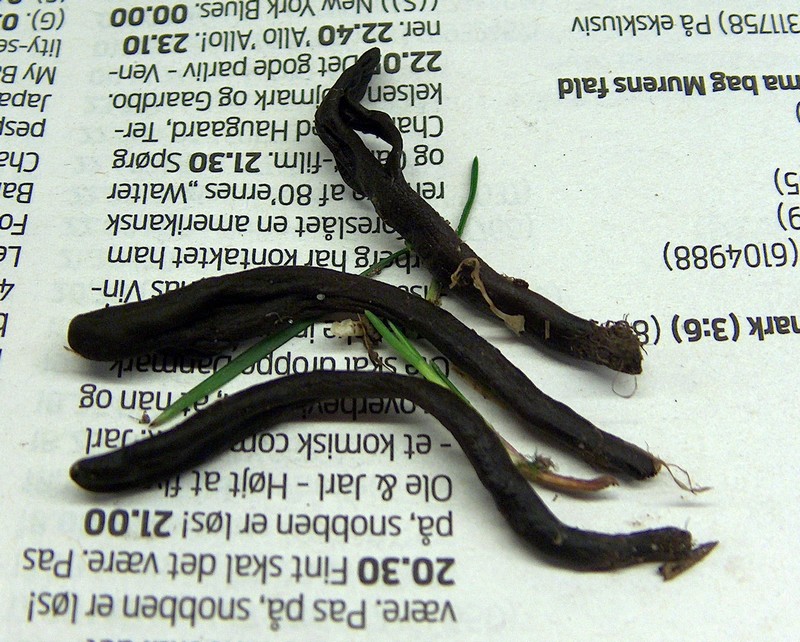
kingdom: Fungi
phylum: Ascomycota
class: Geoglossomycetes
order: Geoglossales
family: Geoglossaceae
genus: Geoglossum
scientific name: Geoglossum umbratile
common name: slank jordtunge
